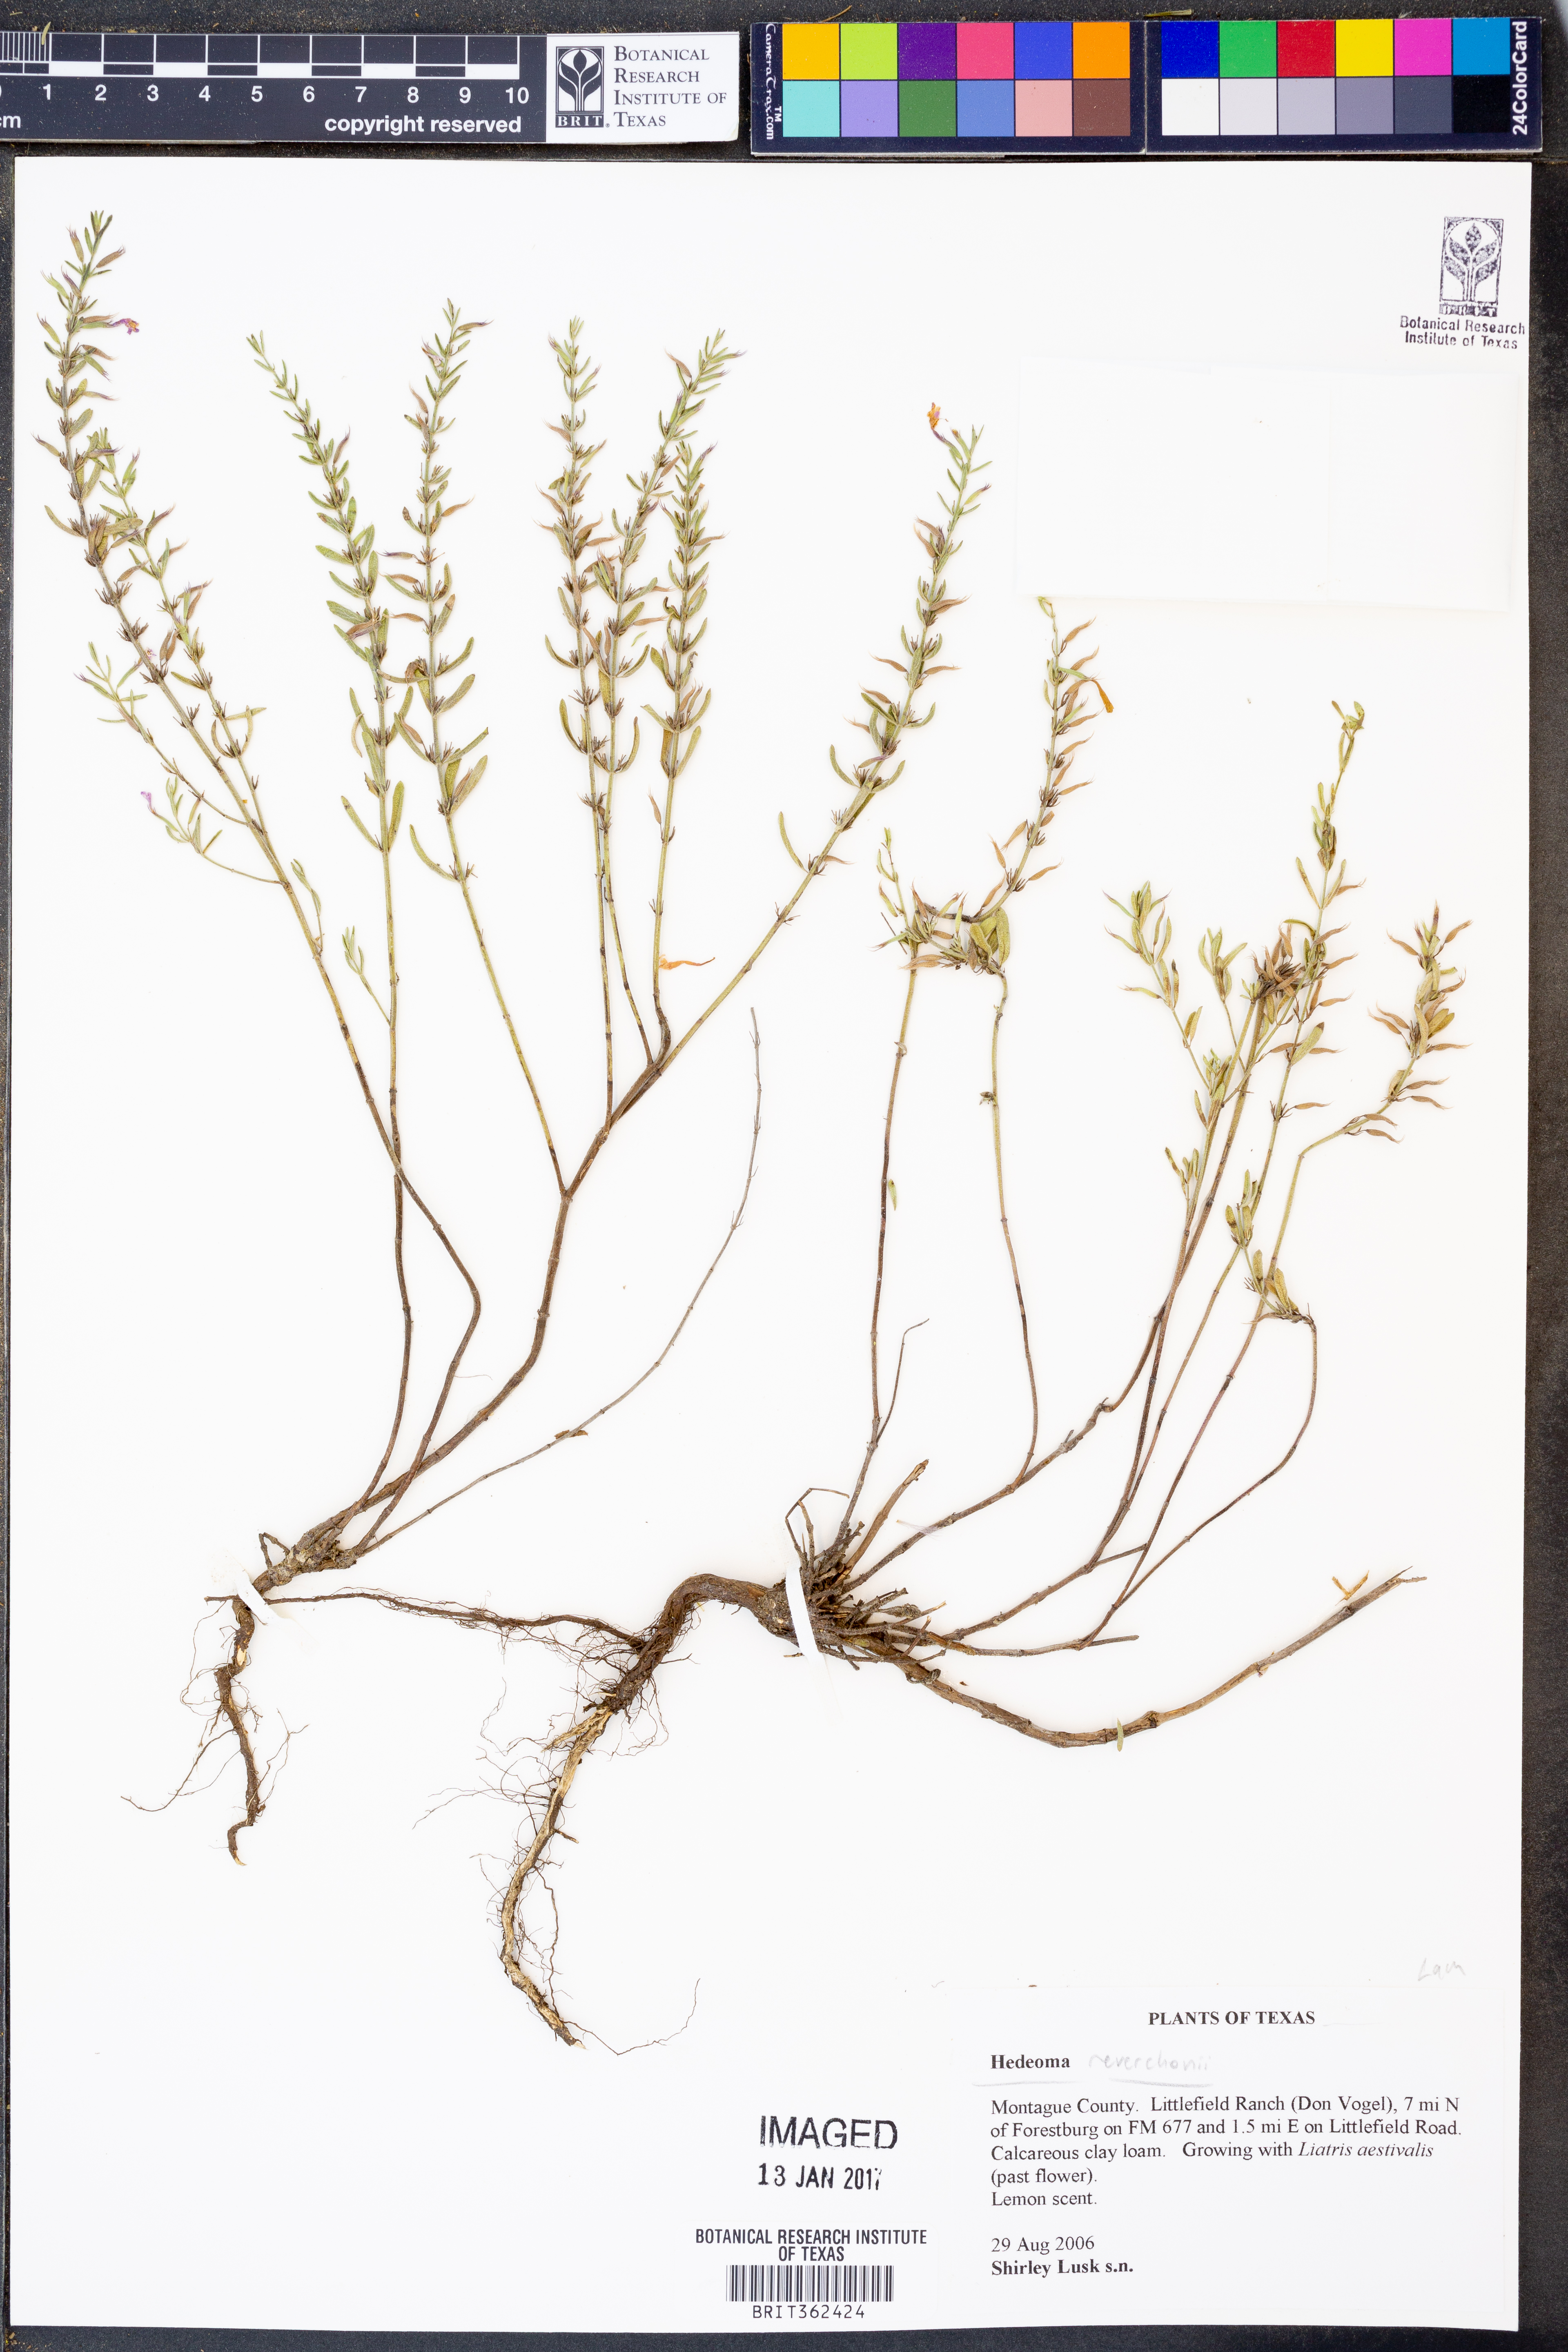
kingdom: Plantae
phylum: Tracheophyta
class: Magnoliopsida
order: Lamiales
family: Lamiaceae
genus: Hedeoma
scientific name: Hedeoma reverchonii
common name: Reverchon's false penny-royal
